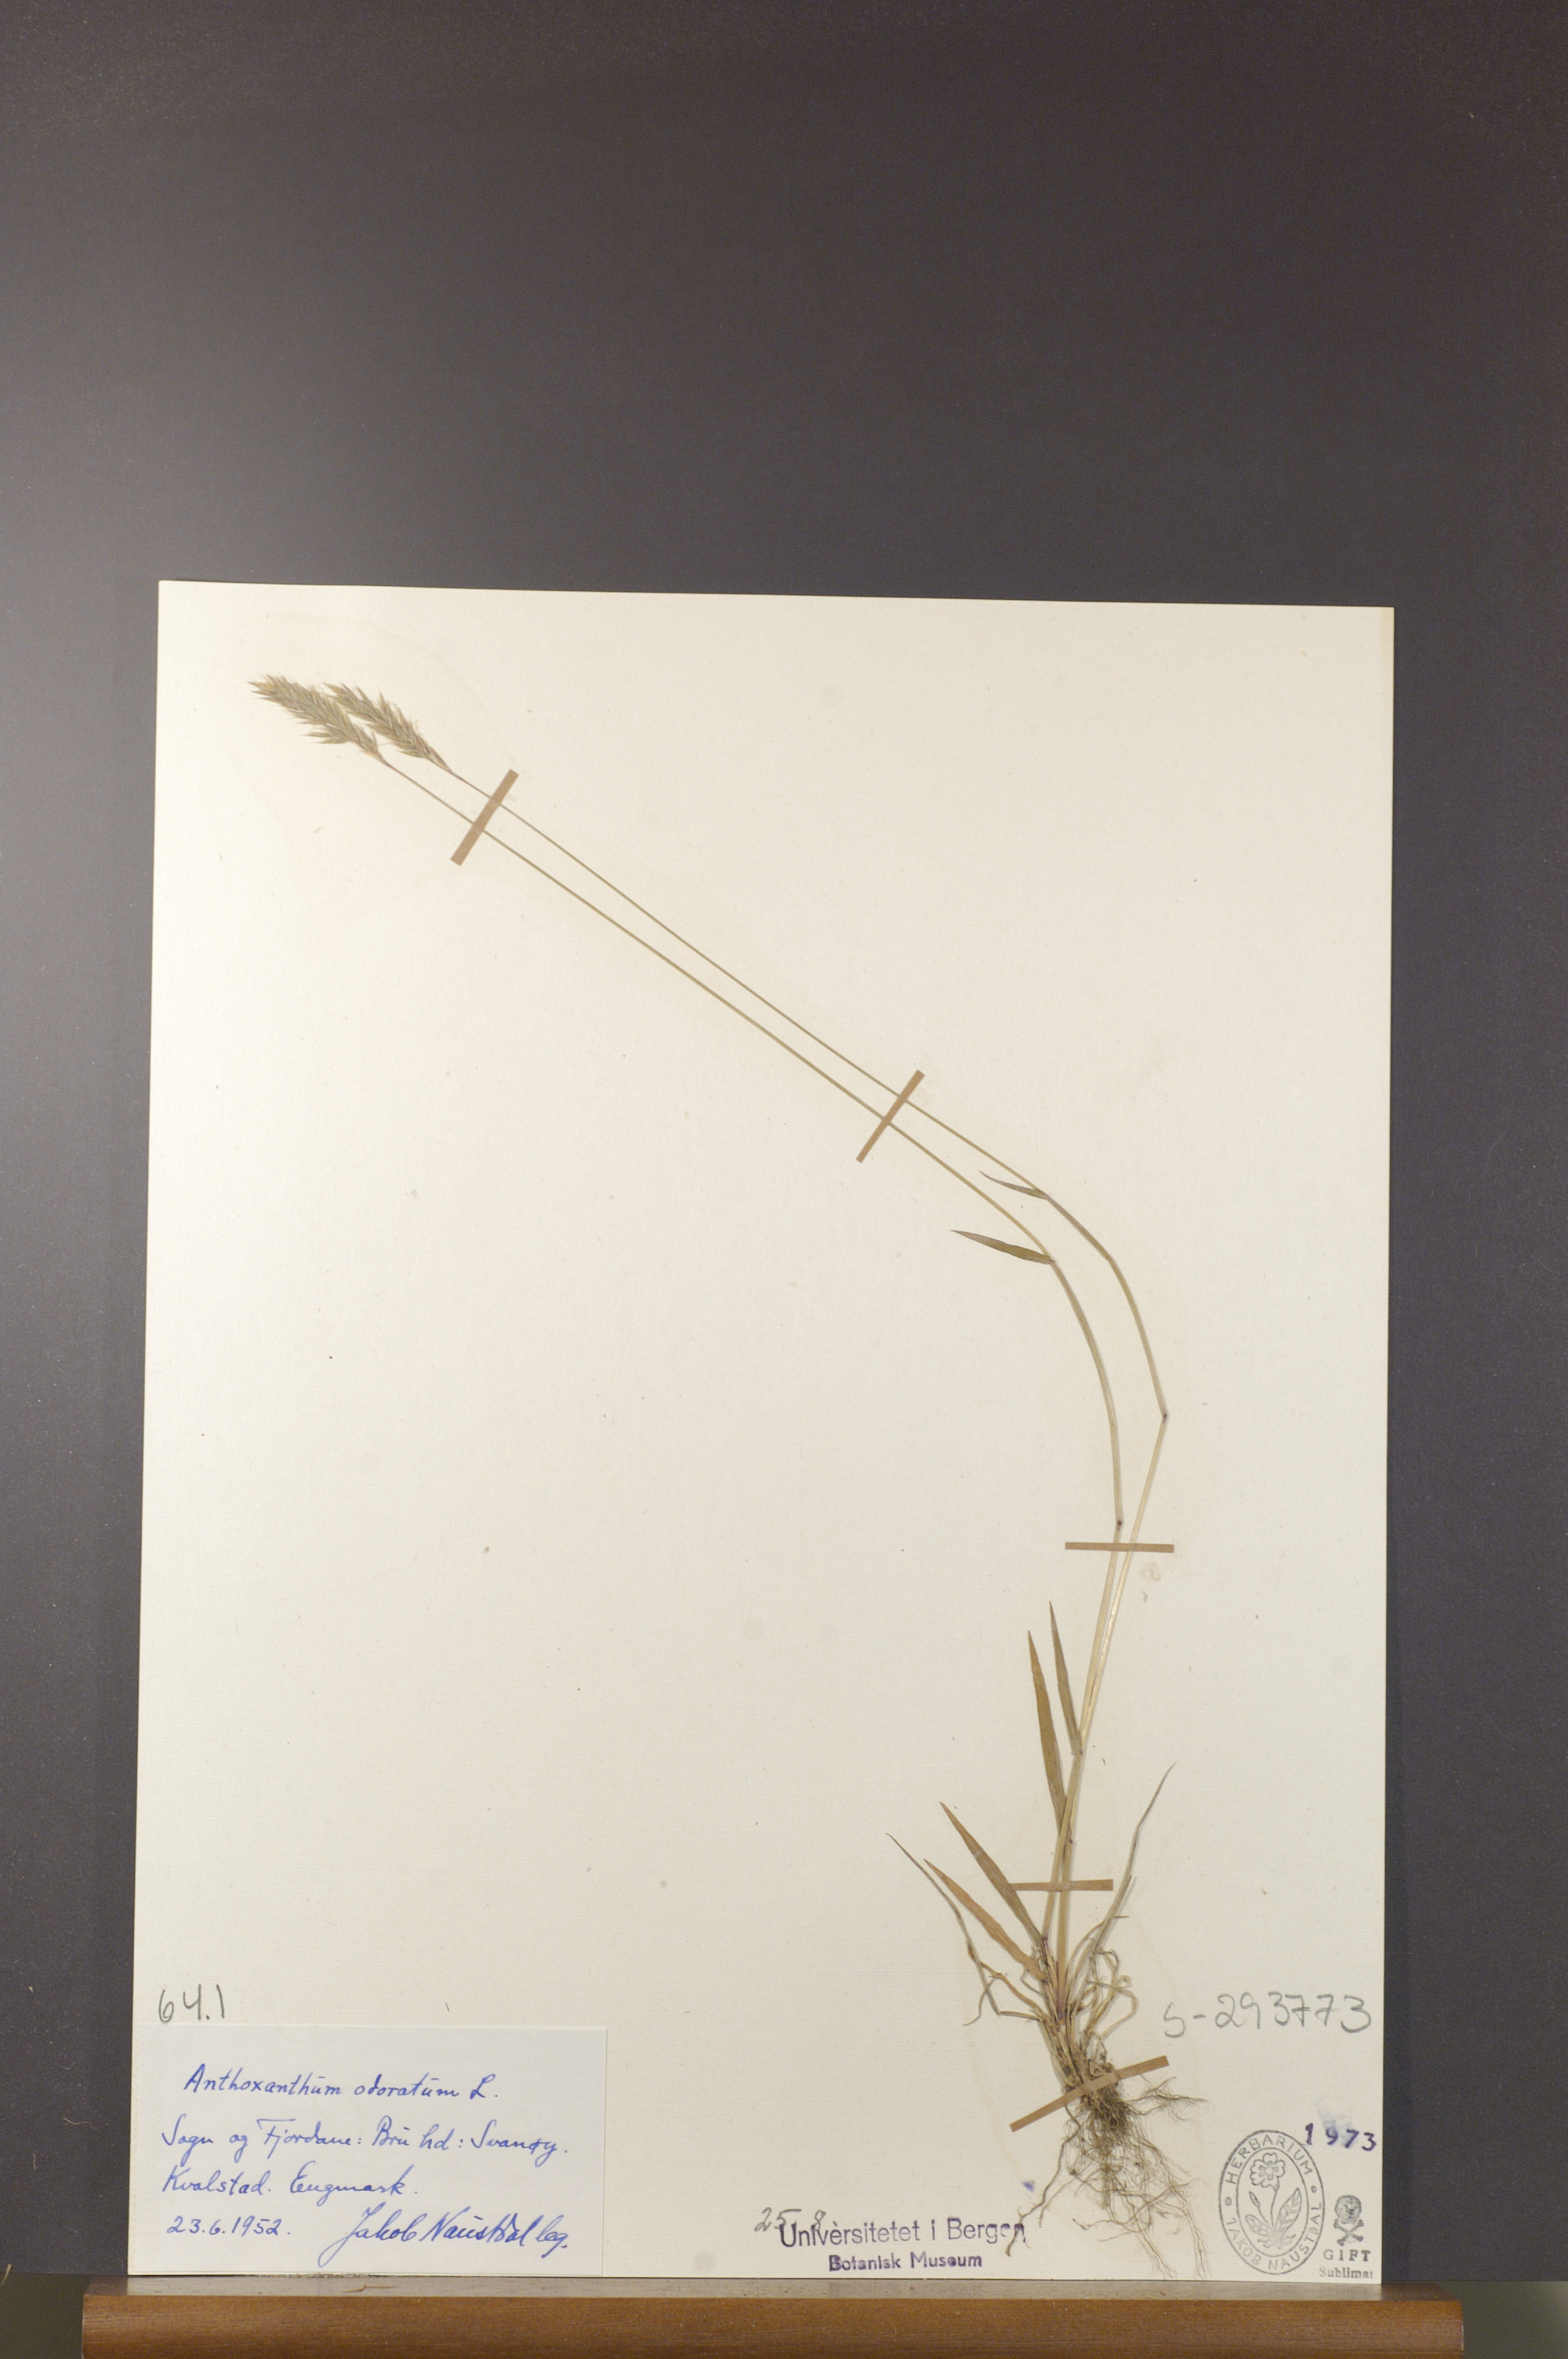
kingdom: Plantae
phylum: Tracheophyta
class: Liliopsida
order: Poales
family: Poaceae
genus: Anthoxanthum
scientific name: Anthoxanthum odoratum
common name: Sweet vernalgrass
